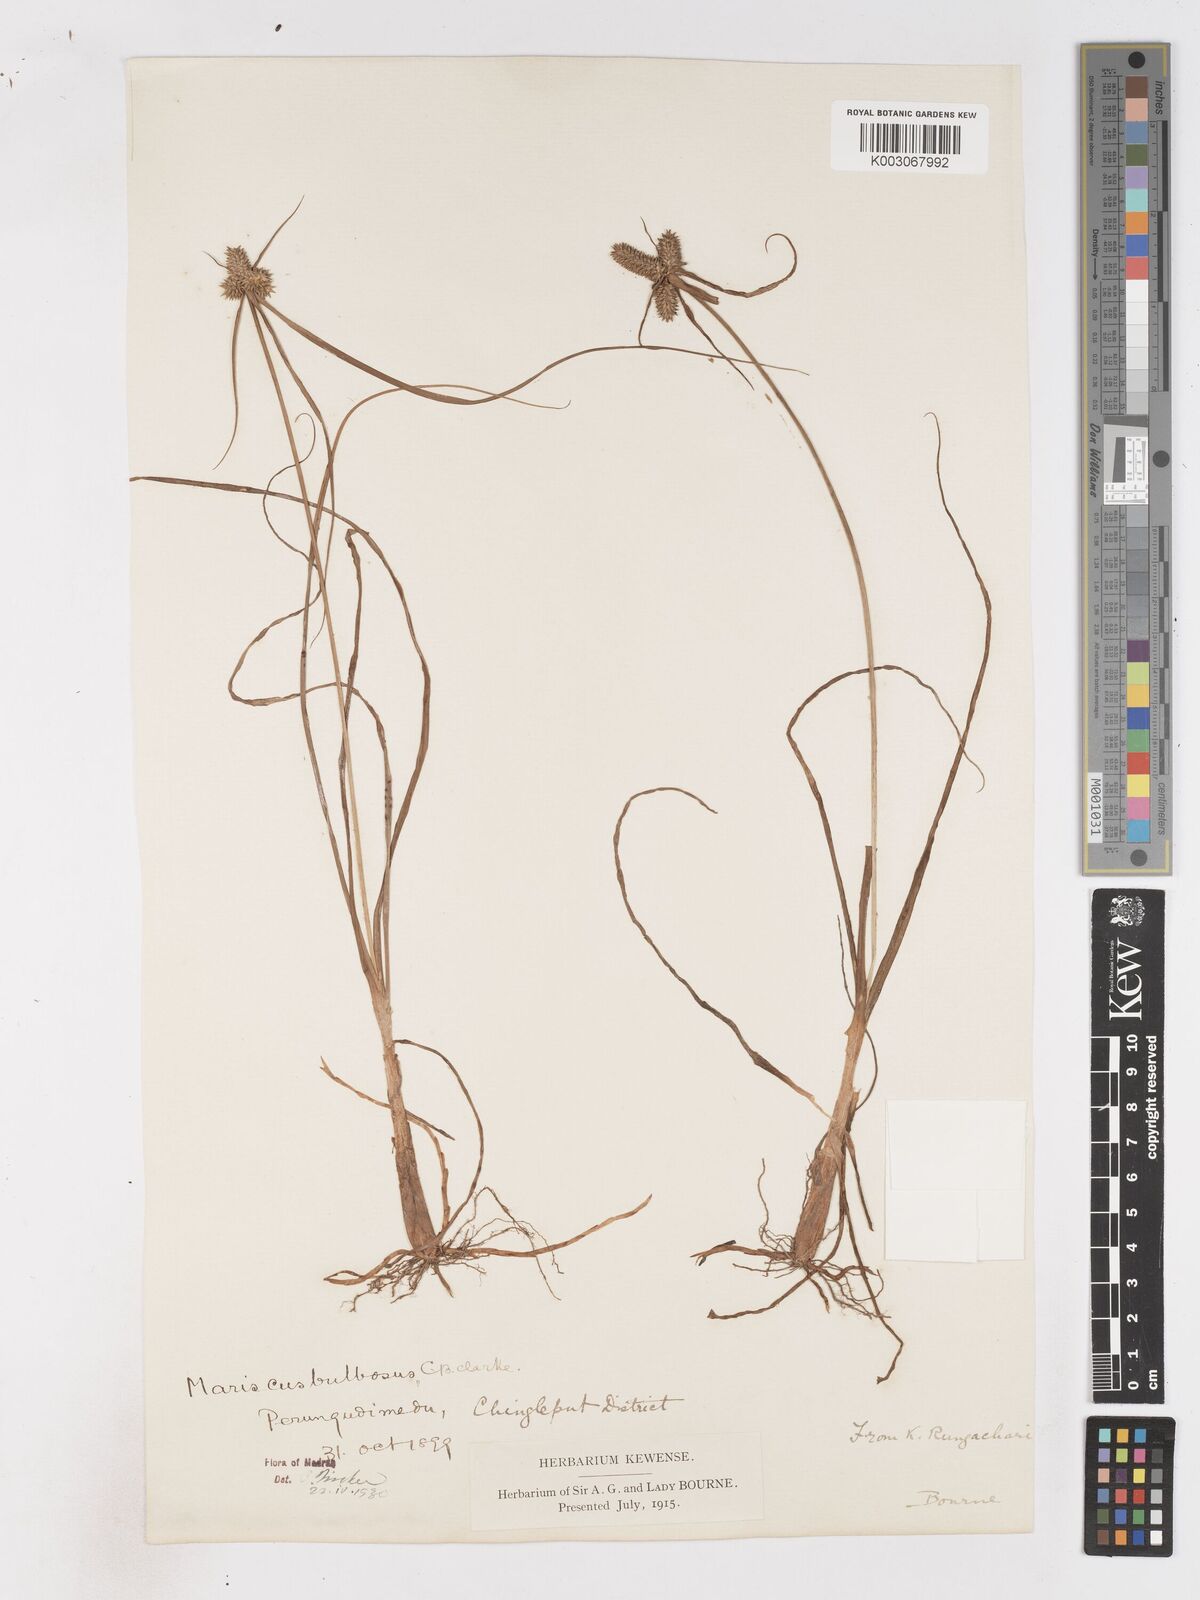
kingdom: Plantae
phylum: Tracheophyta
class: Liliopsida
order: Poales
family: Cyperaceae
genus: Cyperus
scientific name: Cyperus clarkei
